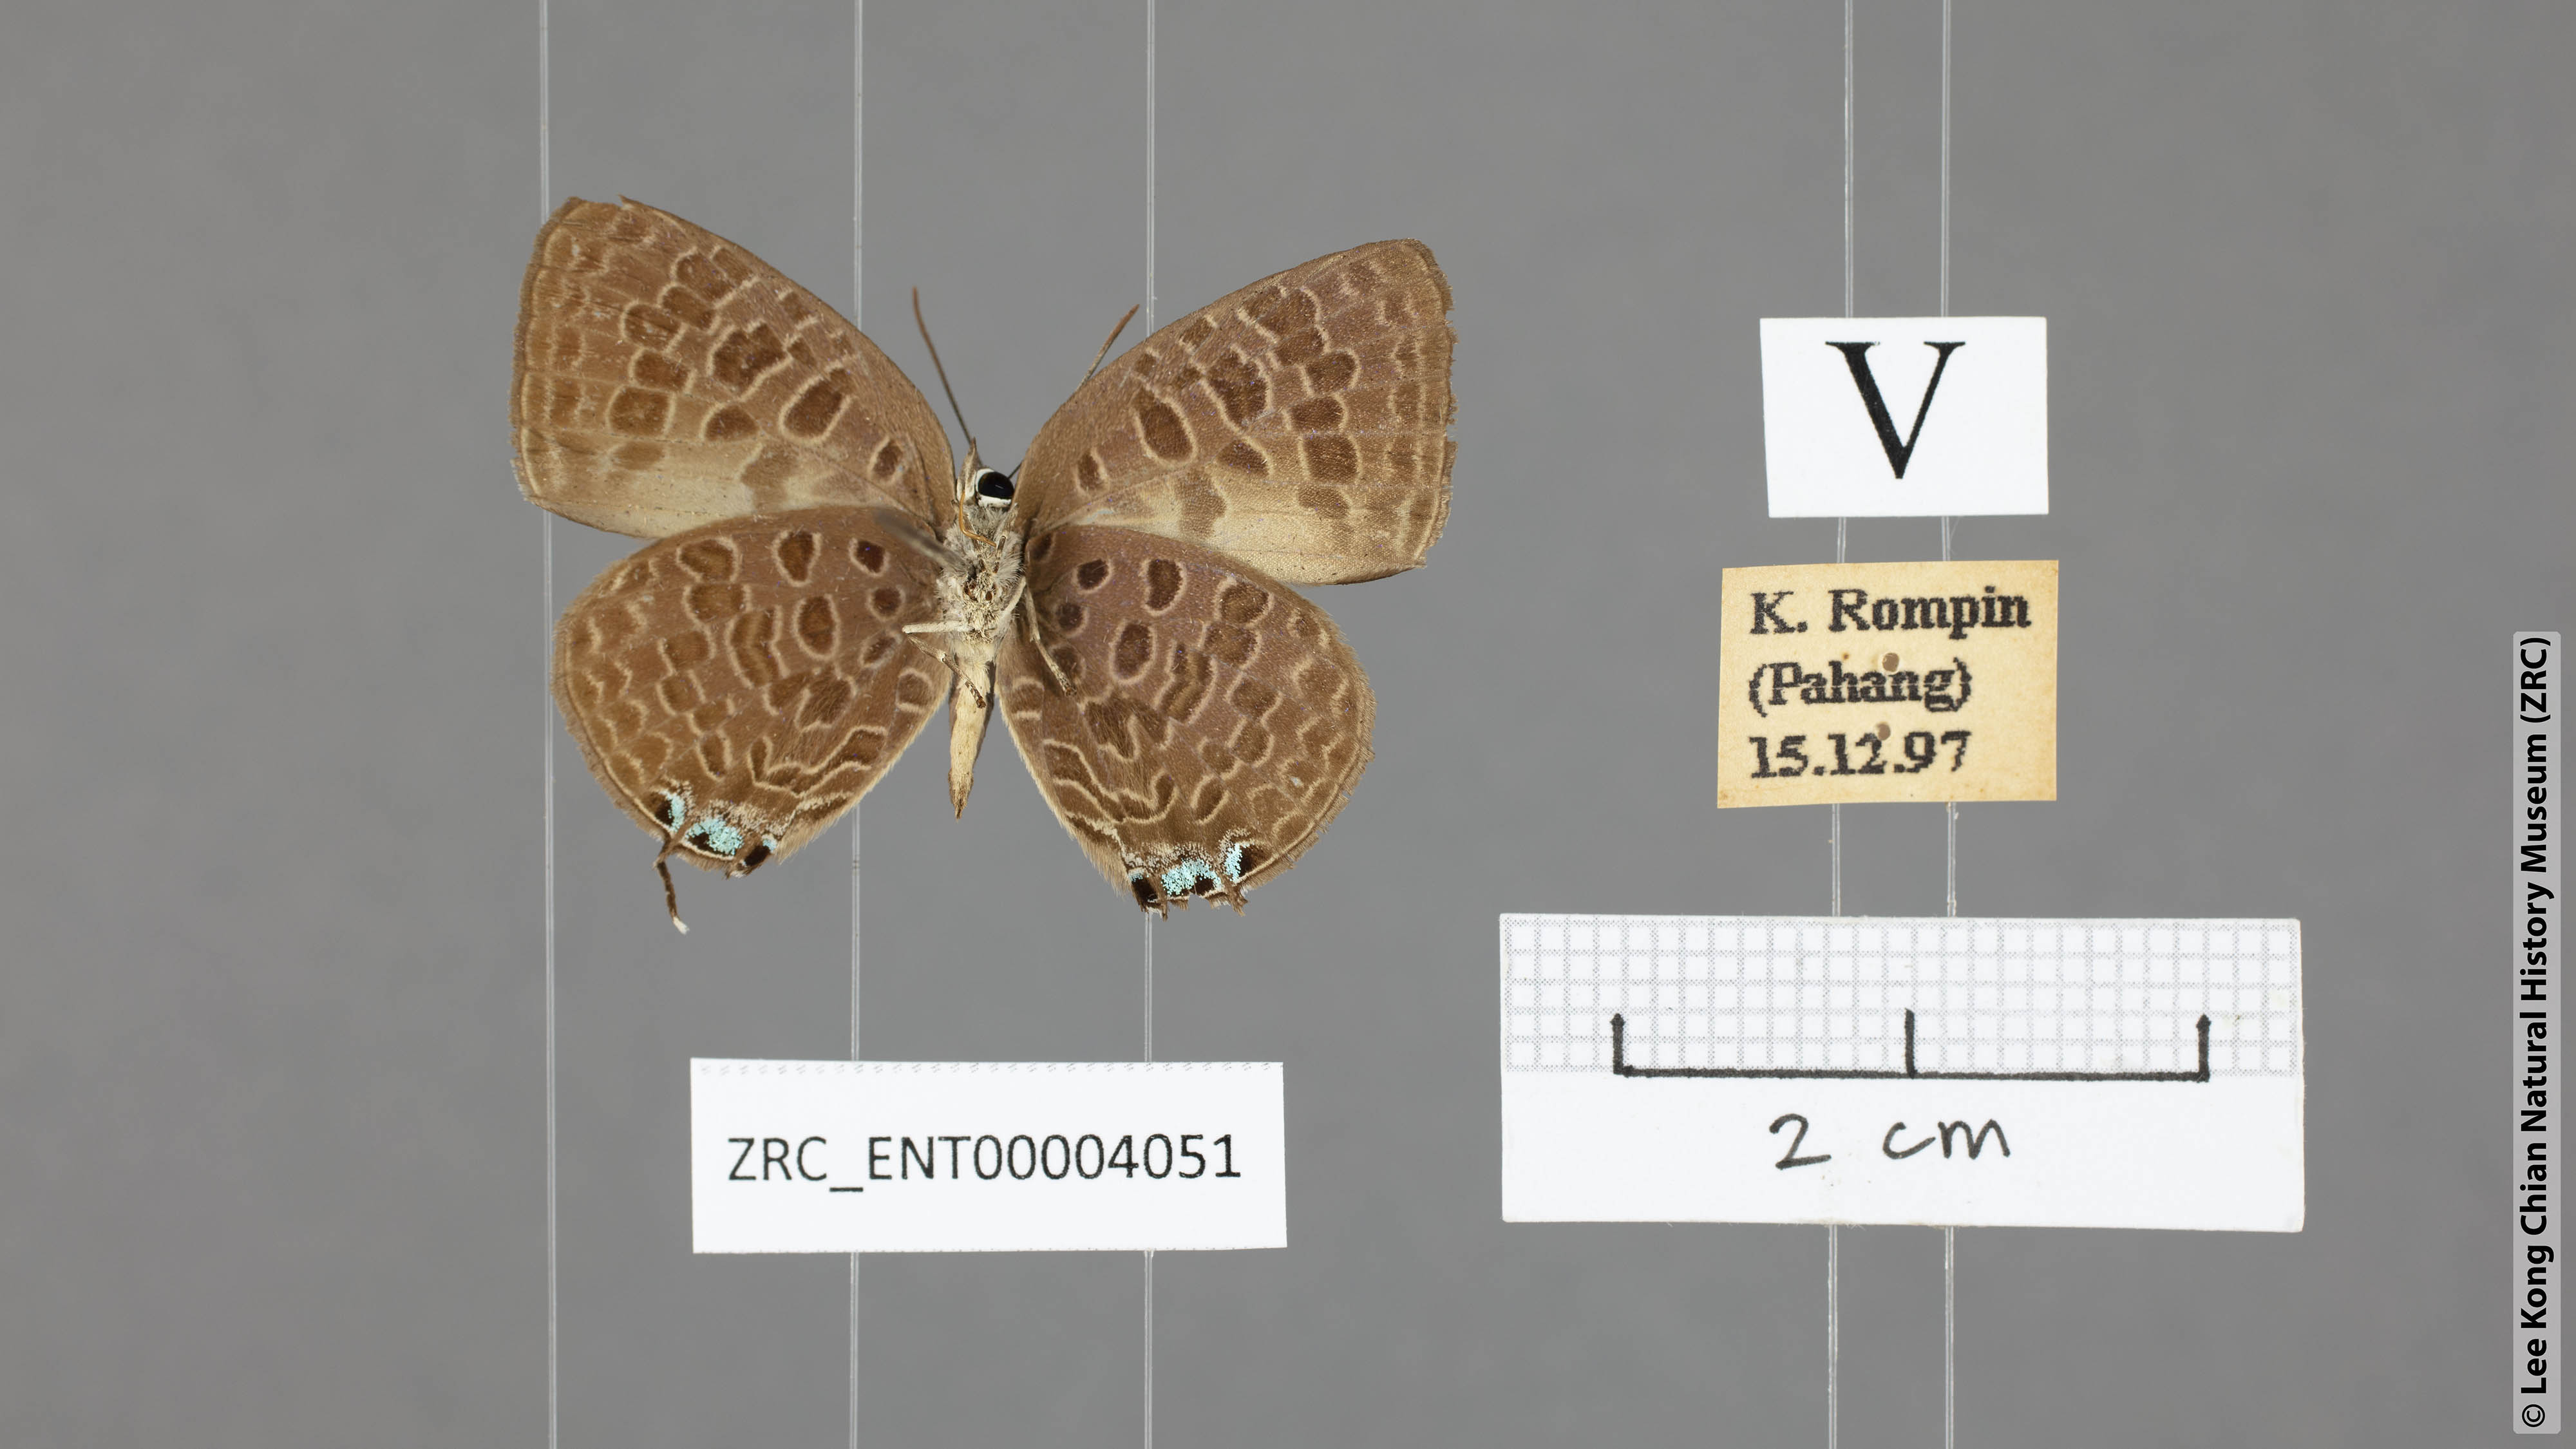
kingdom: Animalia
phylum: Arthropoda
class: Insecta
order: Lepidoptera
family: Lycaenidae
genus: Arhopala
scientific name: Arhopala sintanga
